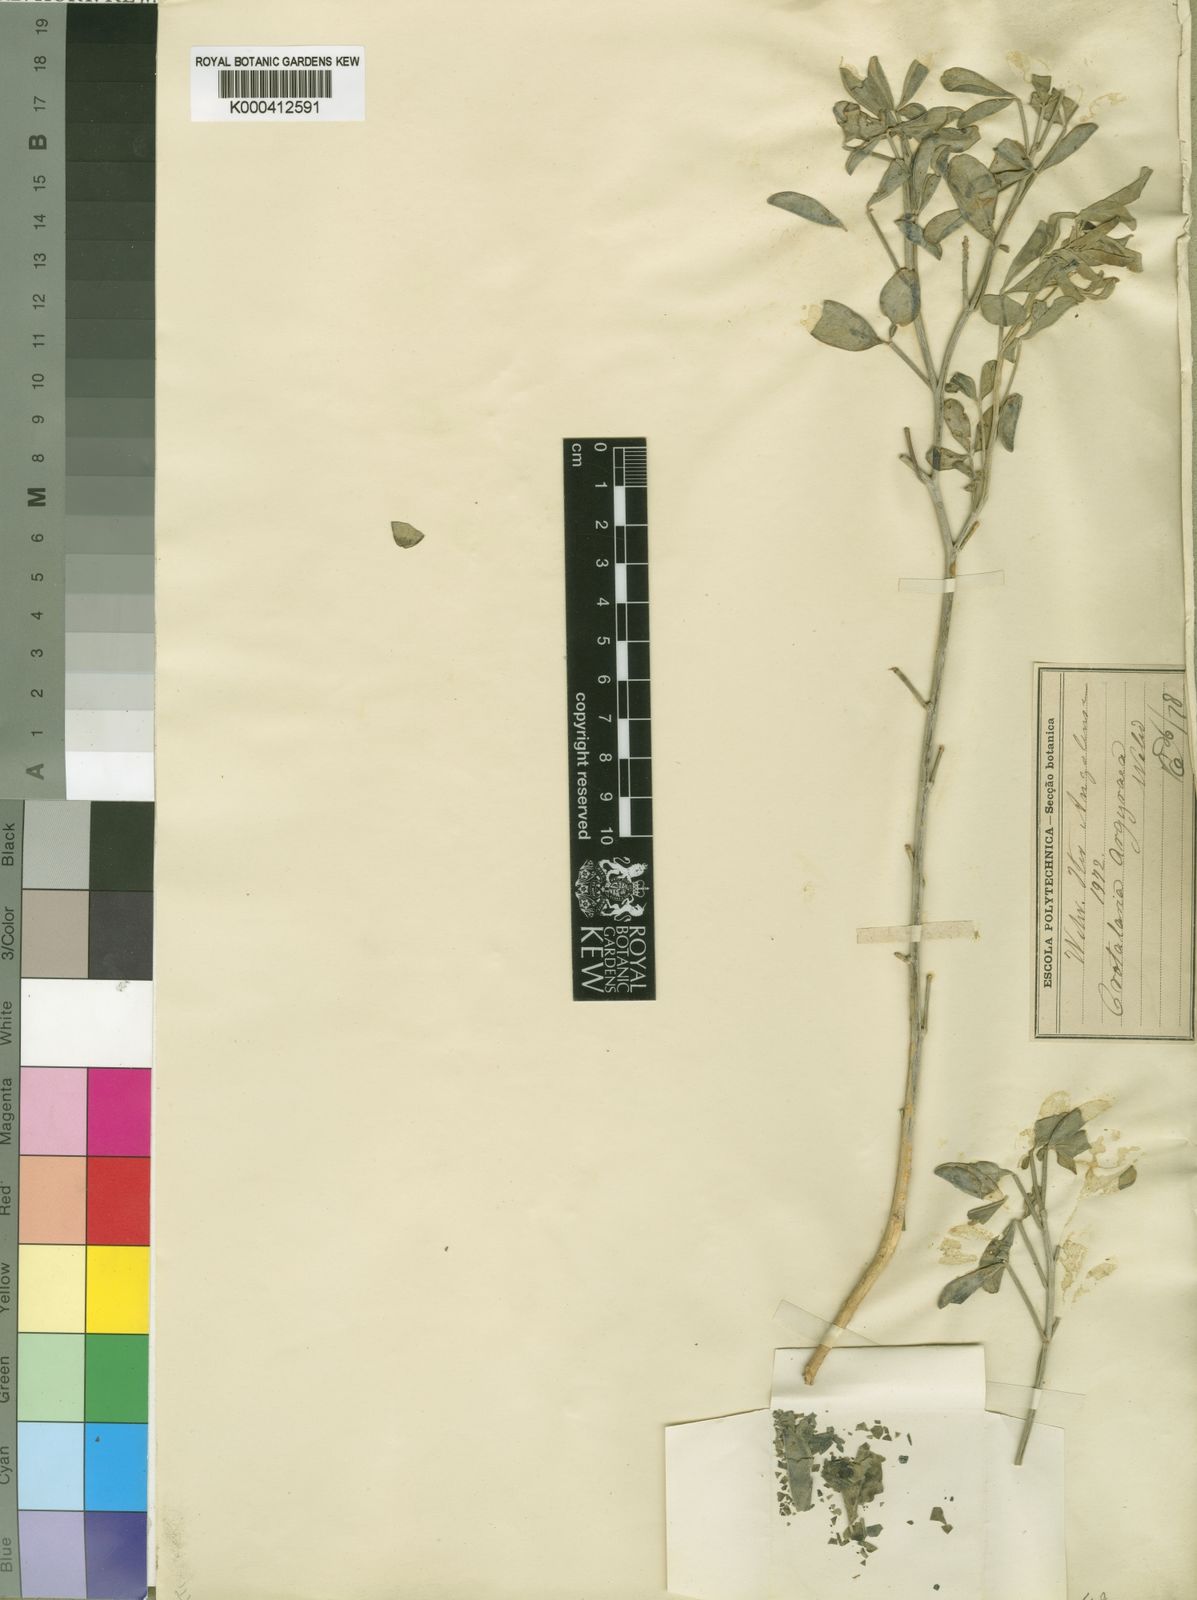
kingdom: Plantae
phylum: Tracheophyta
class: Magnoliopsida
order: Fabales
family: Fabaceae
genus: Crotalaria
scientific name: Crotalaria argyraea
